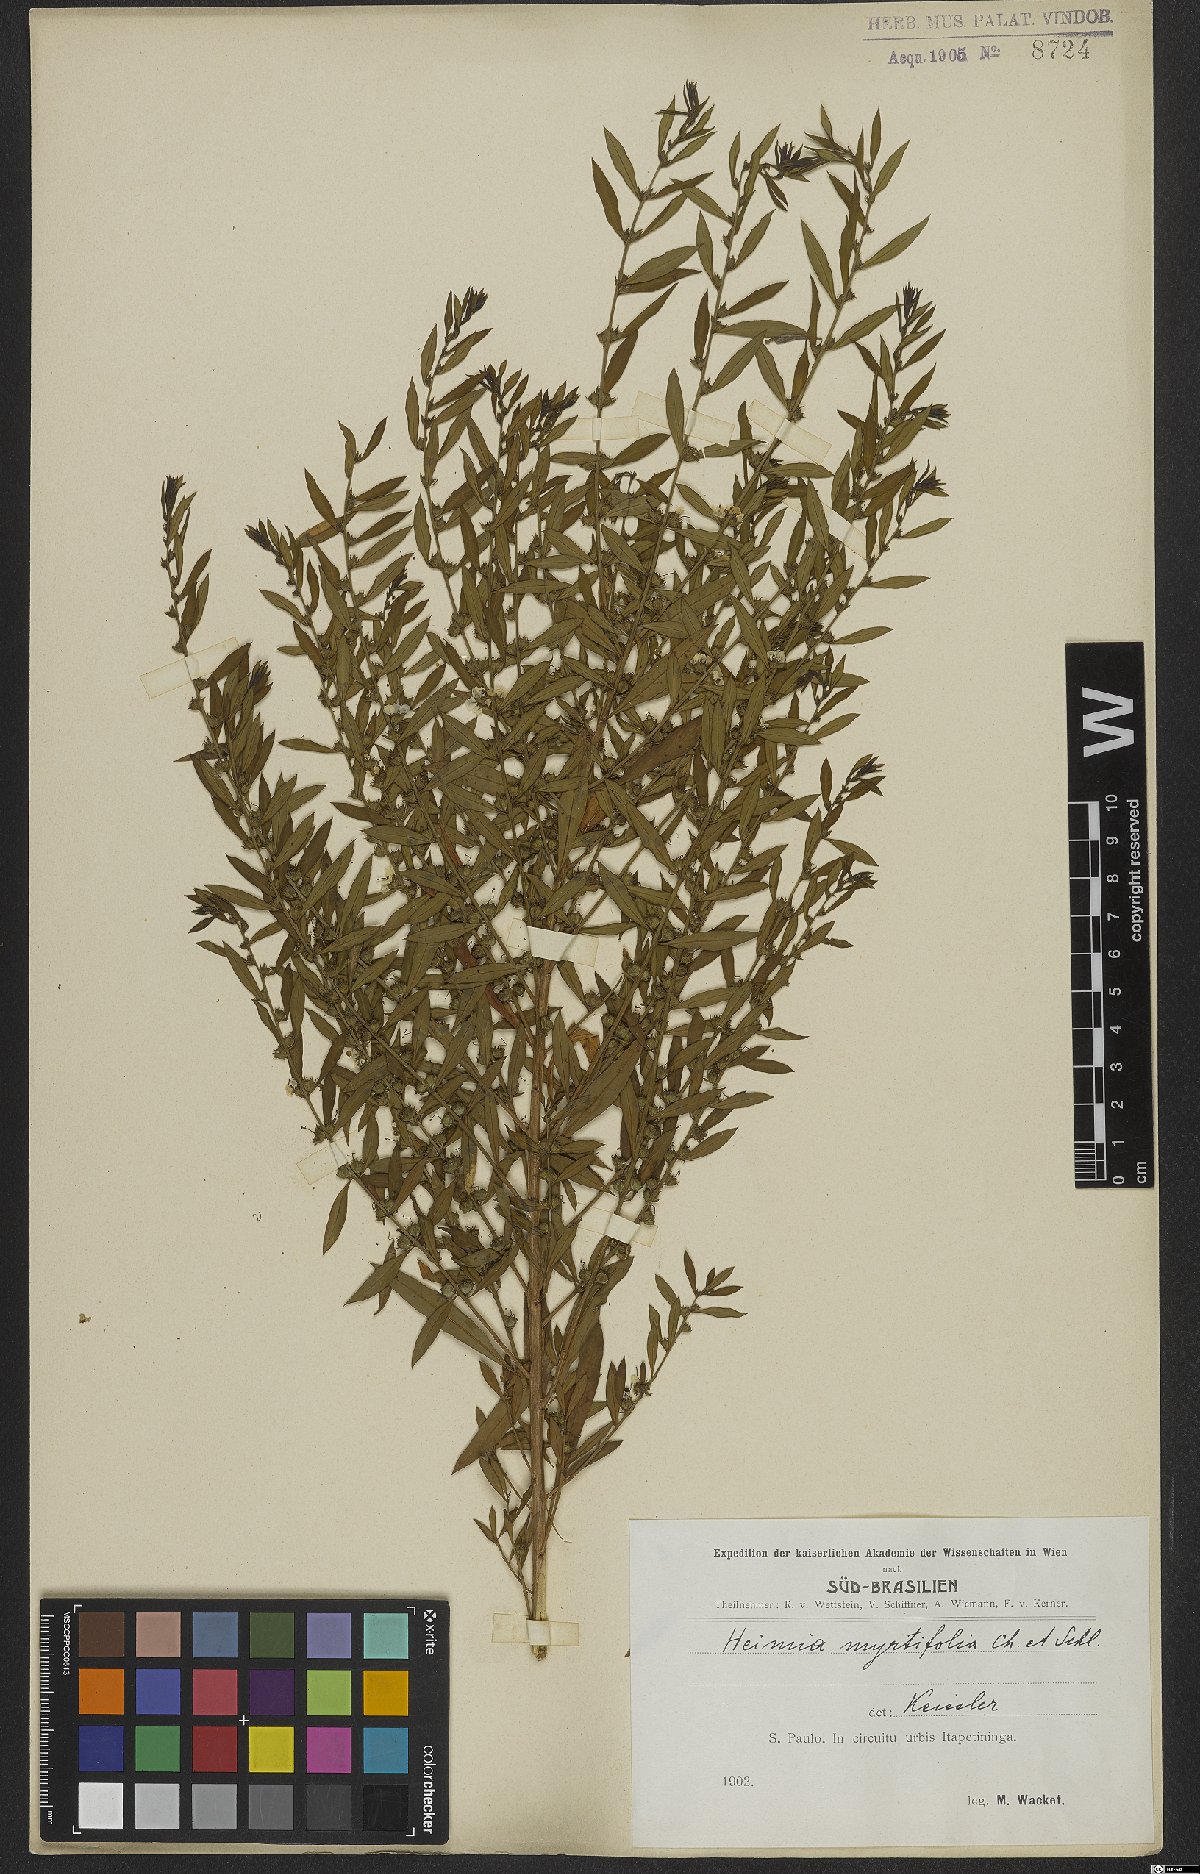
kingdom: Plantae
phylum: Tracheophyta
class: Magnoliopsida
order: Myrtales
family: Lythraceae
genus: Heimia
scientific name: Heimia apetala
